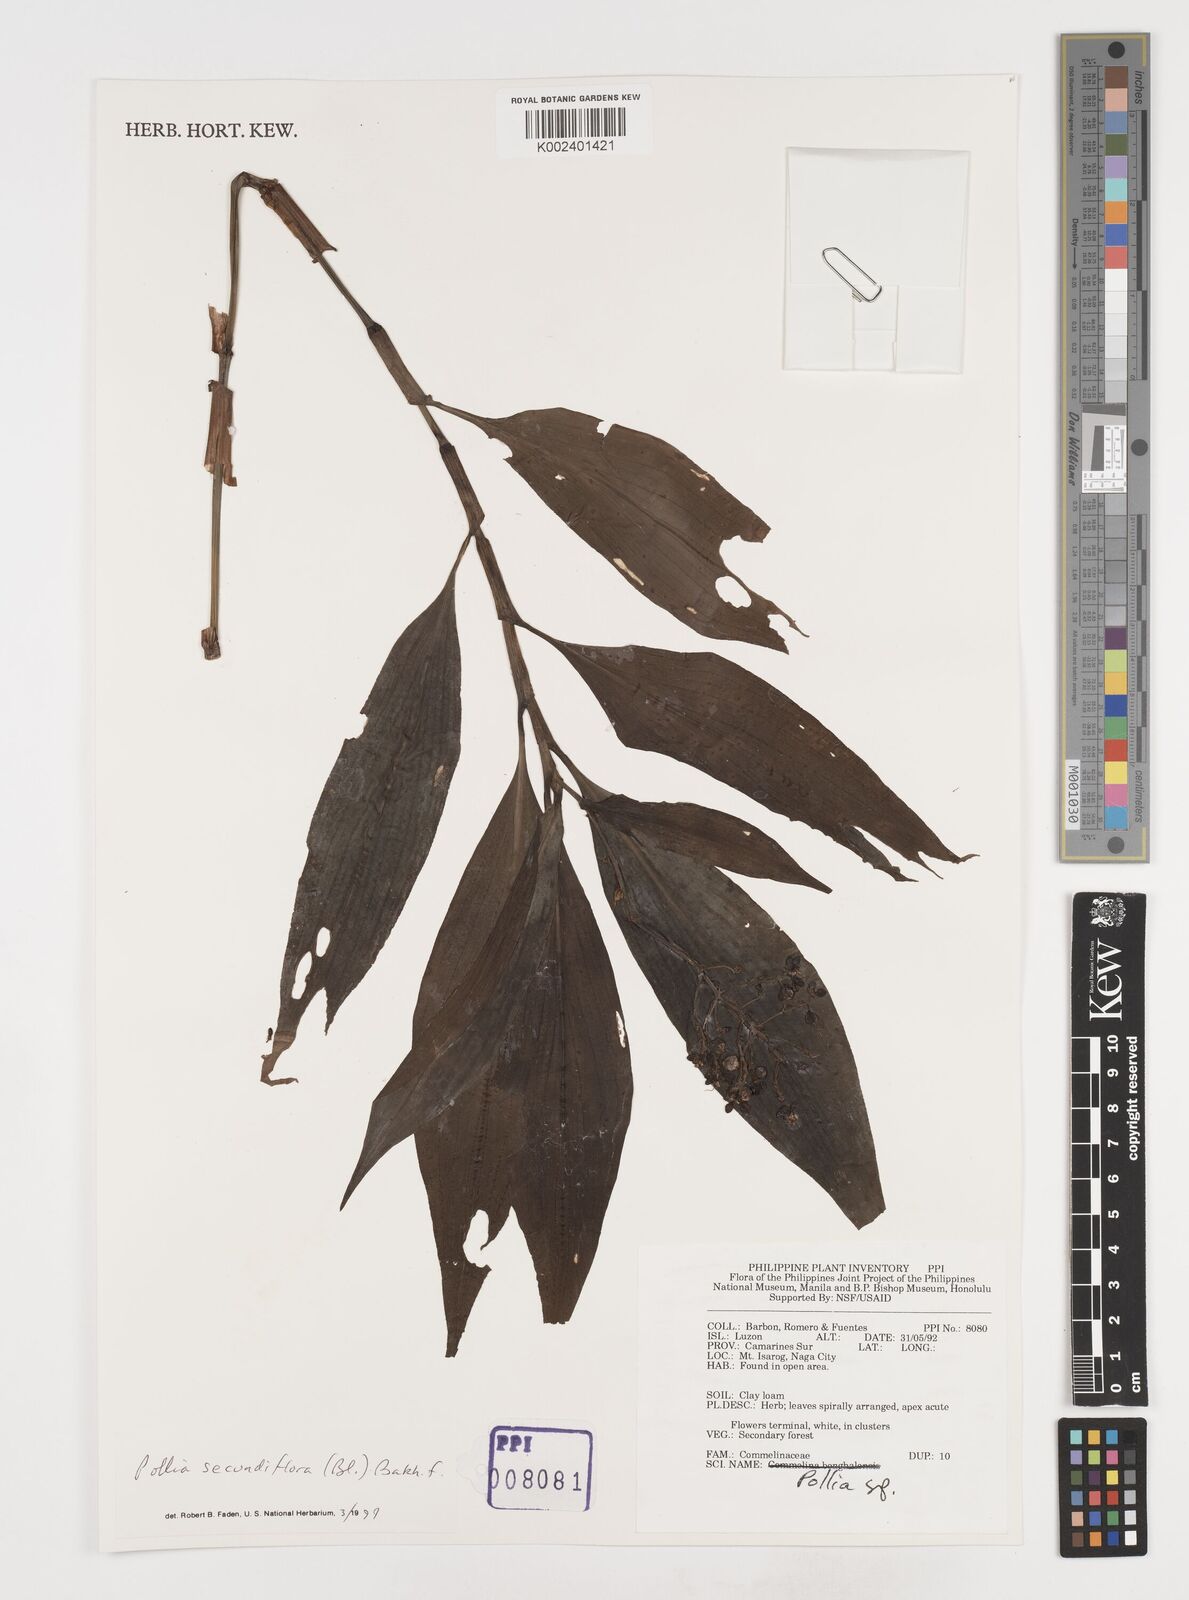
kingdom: Plantae
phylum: Tracheophyta
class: Liliopsida
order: Commelinales
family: Commelinaceae
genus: Pollia
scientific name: Pollia secundiflora
